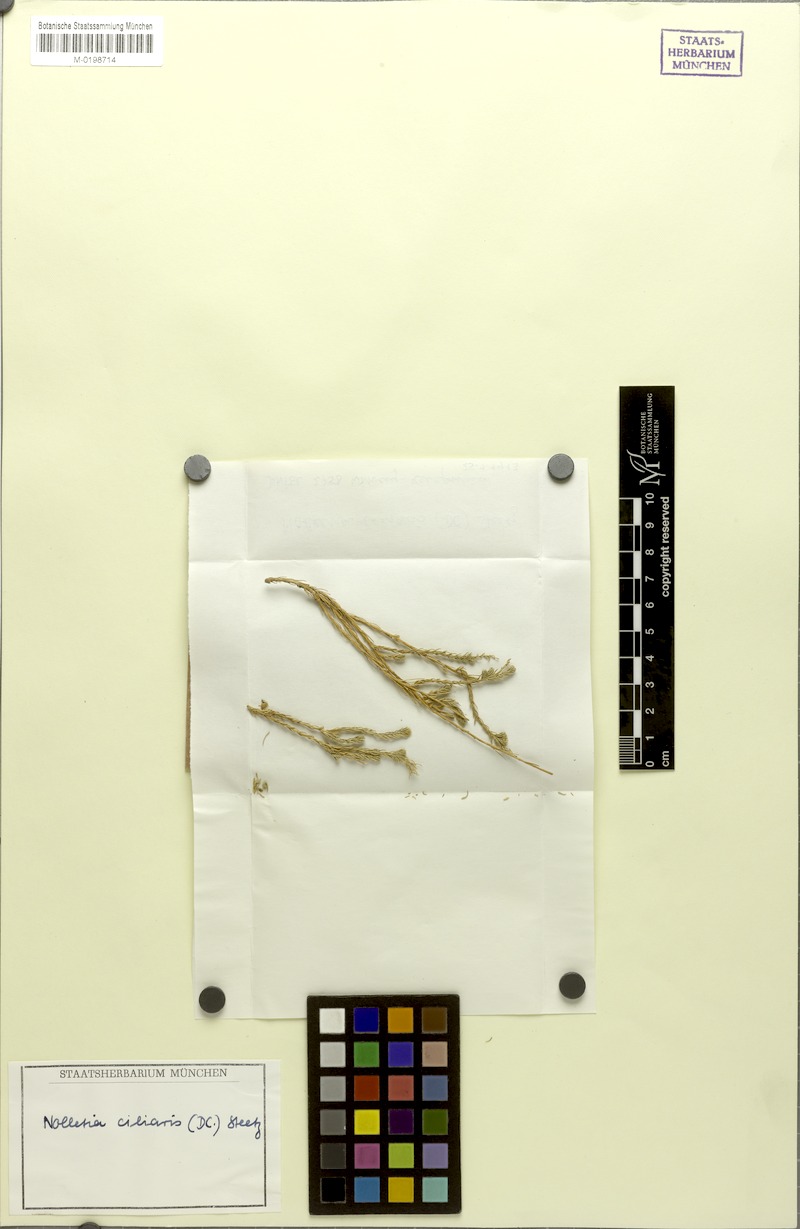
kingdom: Plantae
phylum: Tracheophyta
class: Magnoliopsida
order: Asterales
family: Asteraceae
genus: Nolletia
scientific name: Nolletia ciliaris
